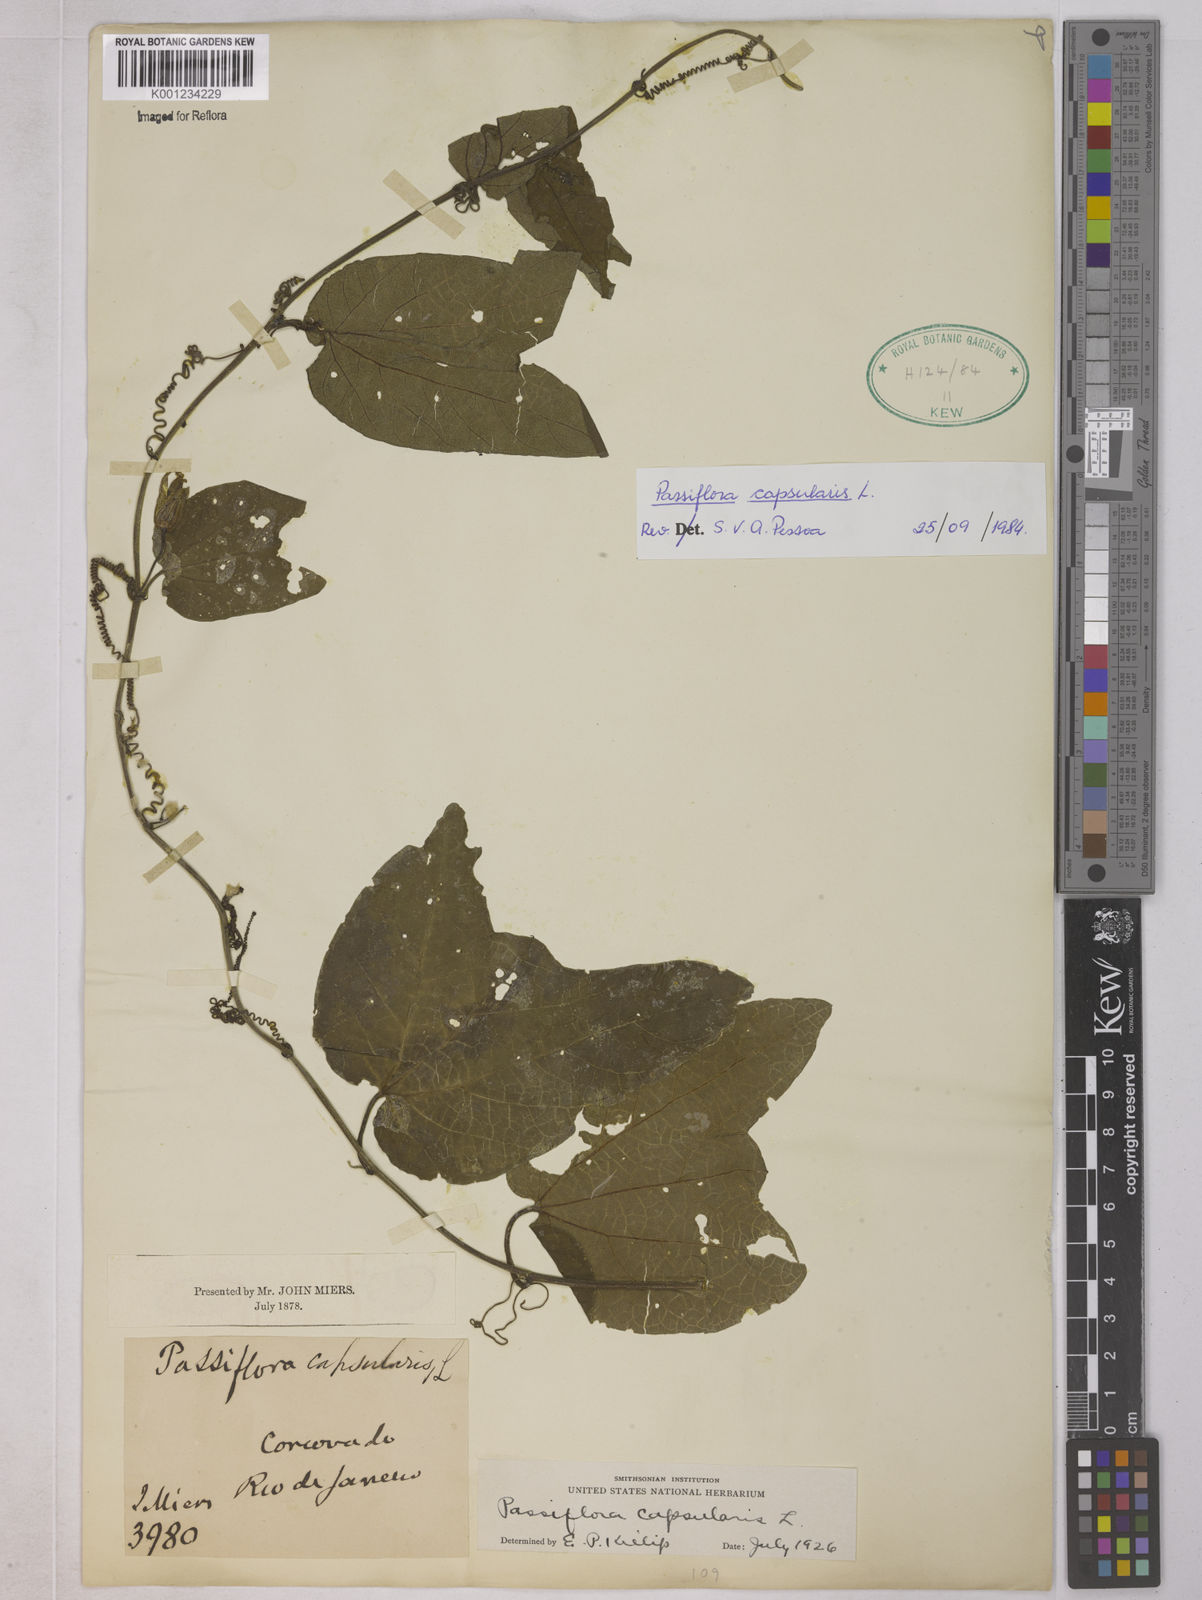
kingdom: Plantae
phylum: Tracheophyta
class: Magnoliopsida
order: Malpighiales
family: Passifloraceae
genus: Passiflora
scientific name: Passiflora capsularis
